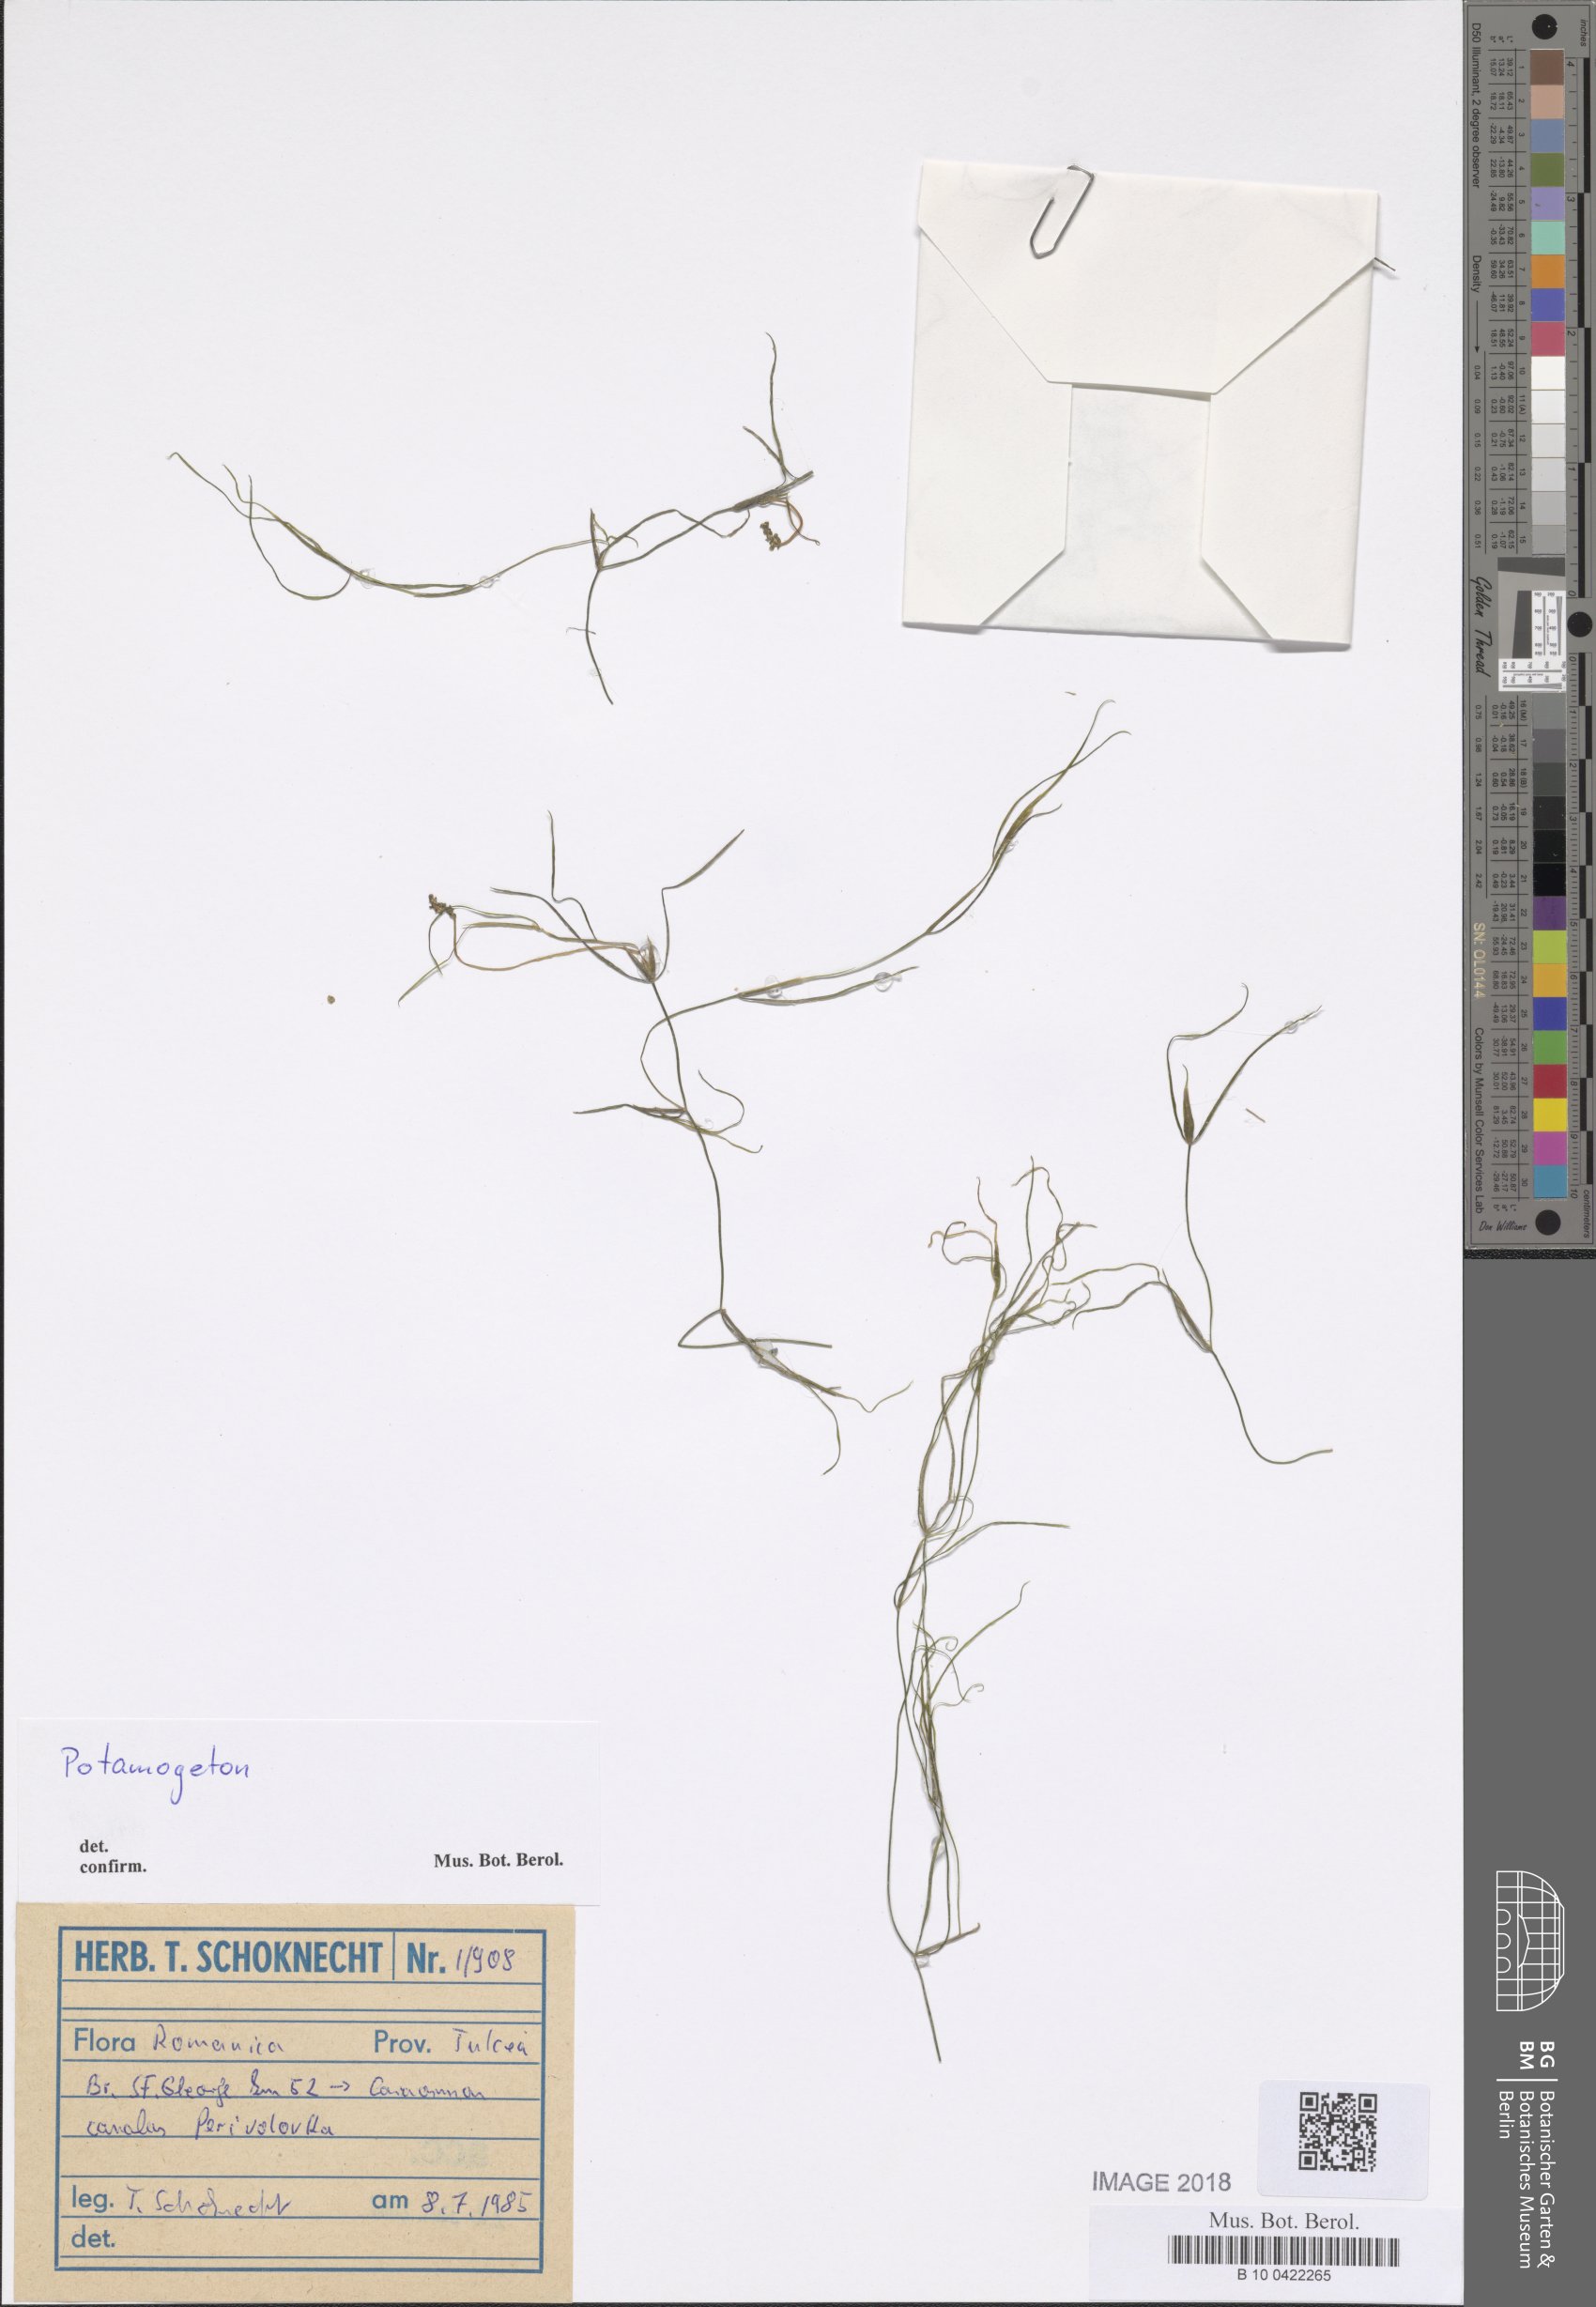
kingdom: Plantae
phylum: Tracheophyta
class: Liliopsida
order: Alismatales
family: Potamogetonaceae
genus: Potamogeton
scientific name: Potamogeton trichoides
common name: Hairlike pondweed
